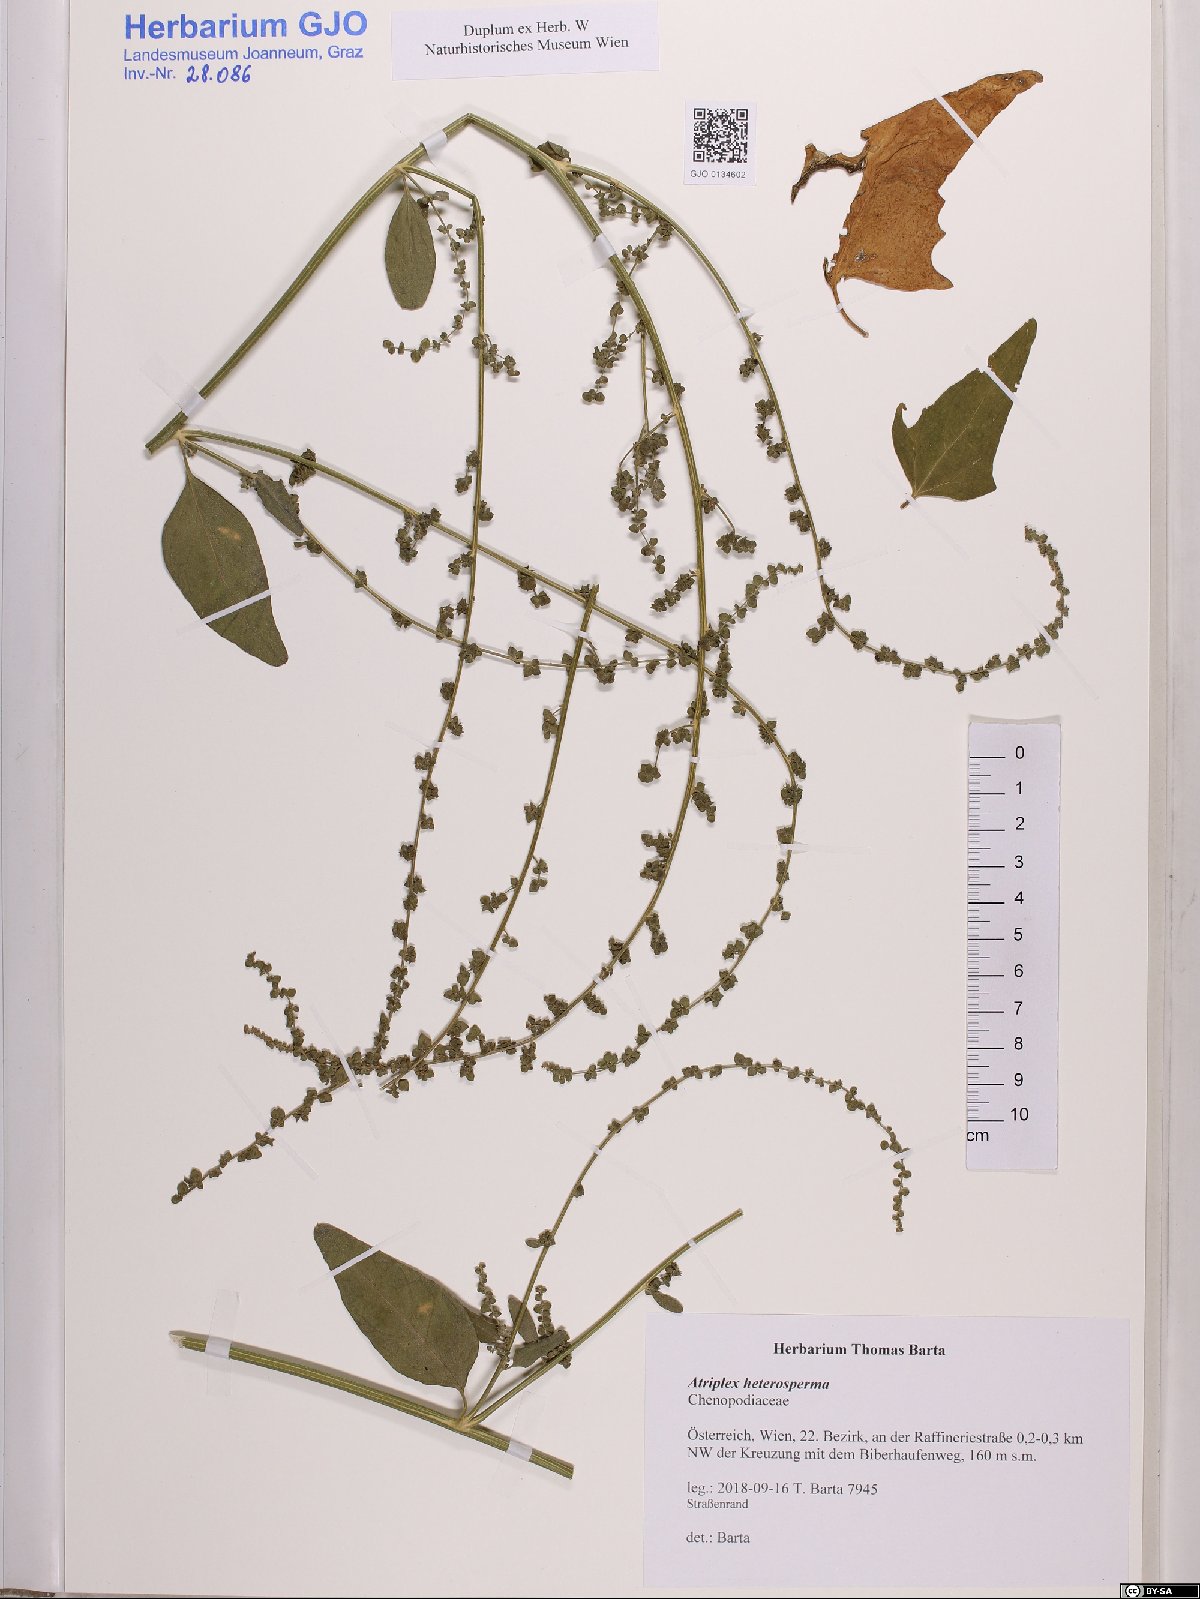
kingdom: Plantae
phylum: Tracheophyta
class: Magnoliopsida
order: Caryophyllales
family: Amaranthaceae
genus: Atriplex
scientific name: Atriplex micrantha
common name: Twoscale saltbush
